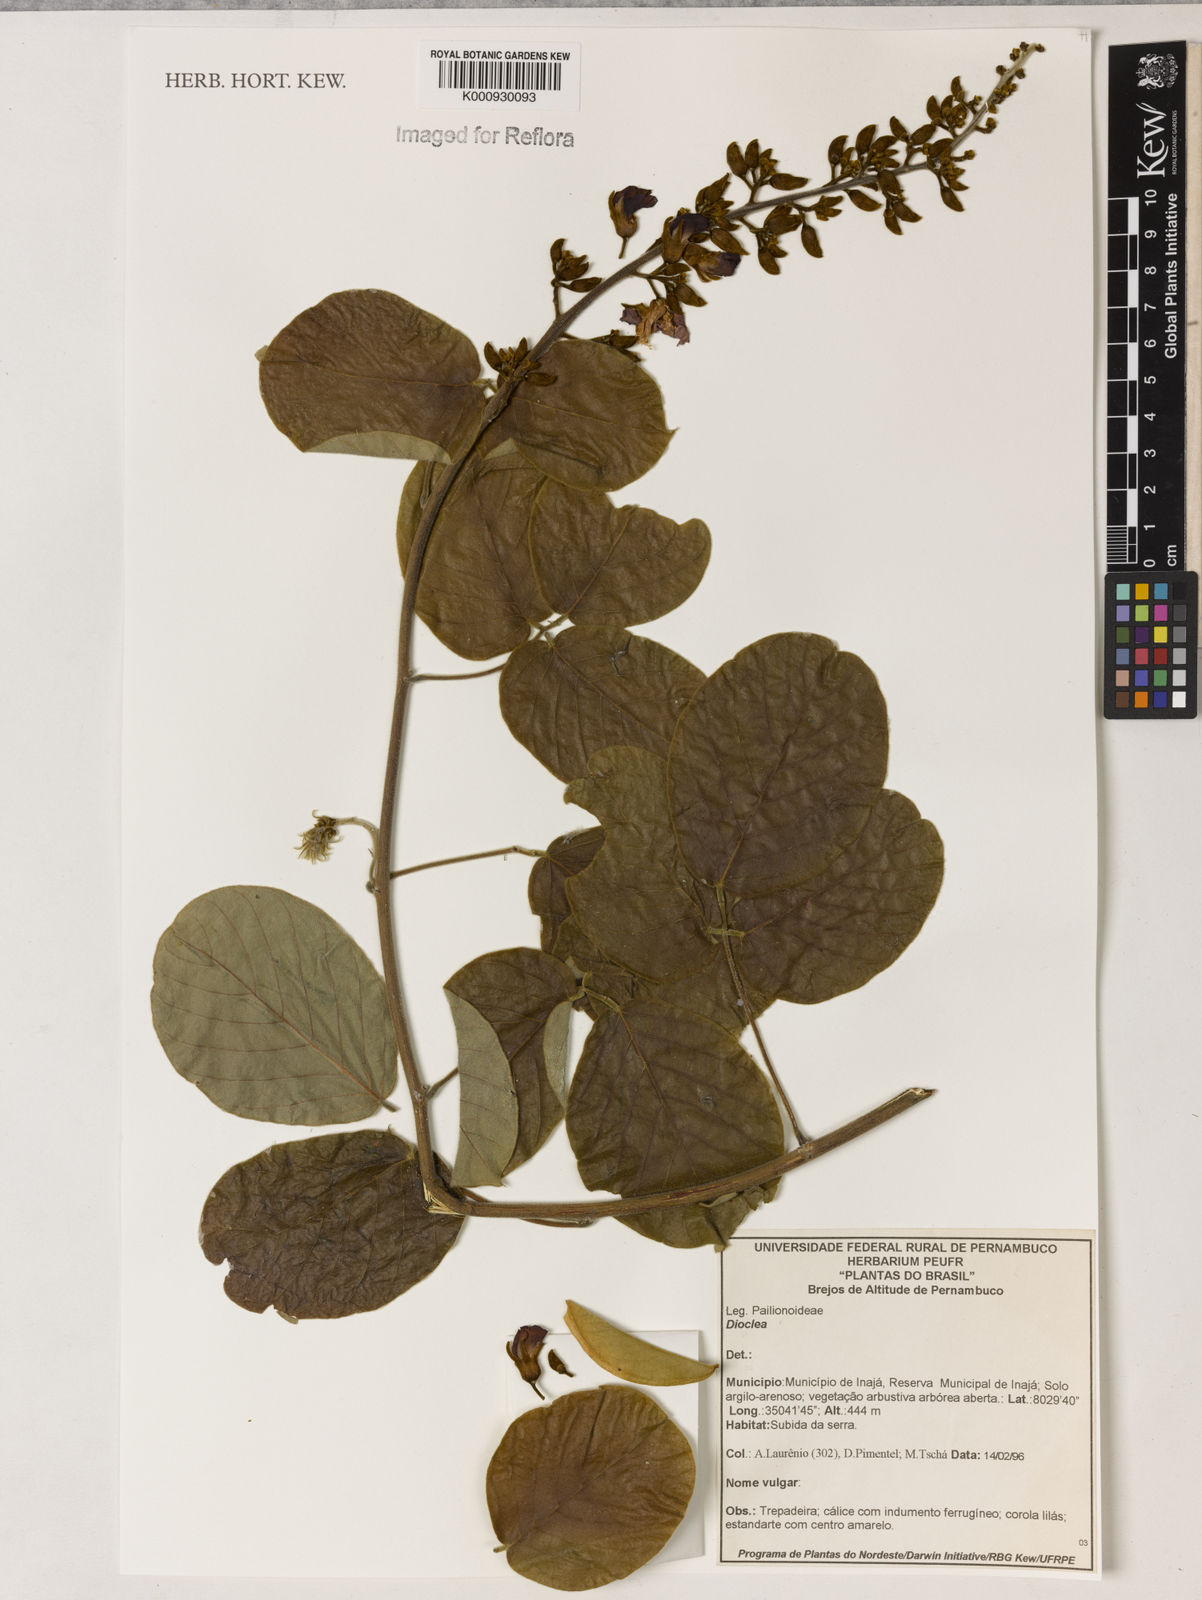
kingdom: Plantae
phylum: Tracheophyta
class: Magnoliopsida
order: Fabales
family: Fabaceae
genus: Dioclea
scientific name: Dioclea
